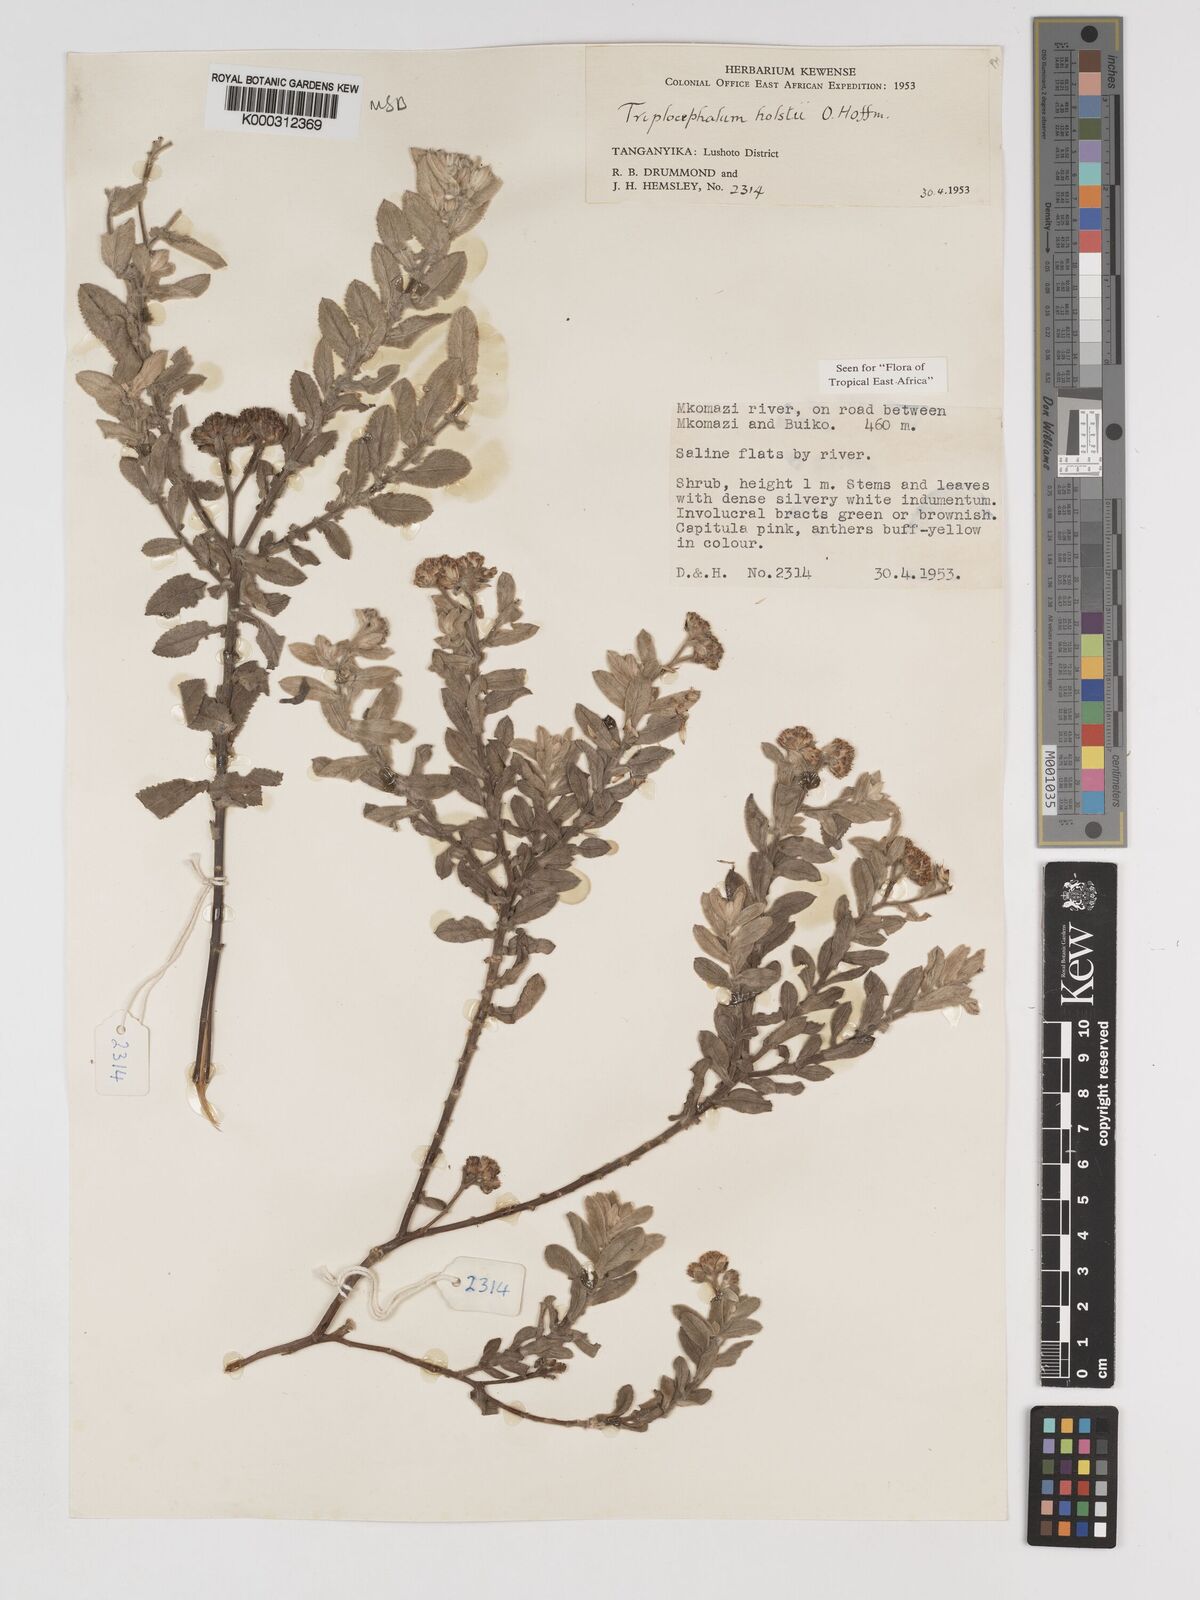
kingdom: Plantae
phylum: Tracheophyta
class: Magnoliopsida
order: Asterales
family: Asteraceae
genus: Triplocephalum
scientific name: Triplocephalum holstii
